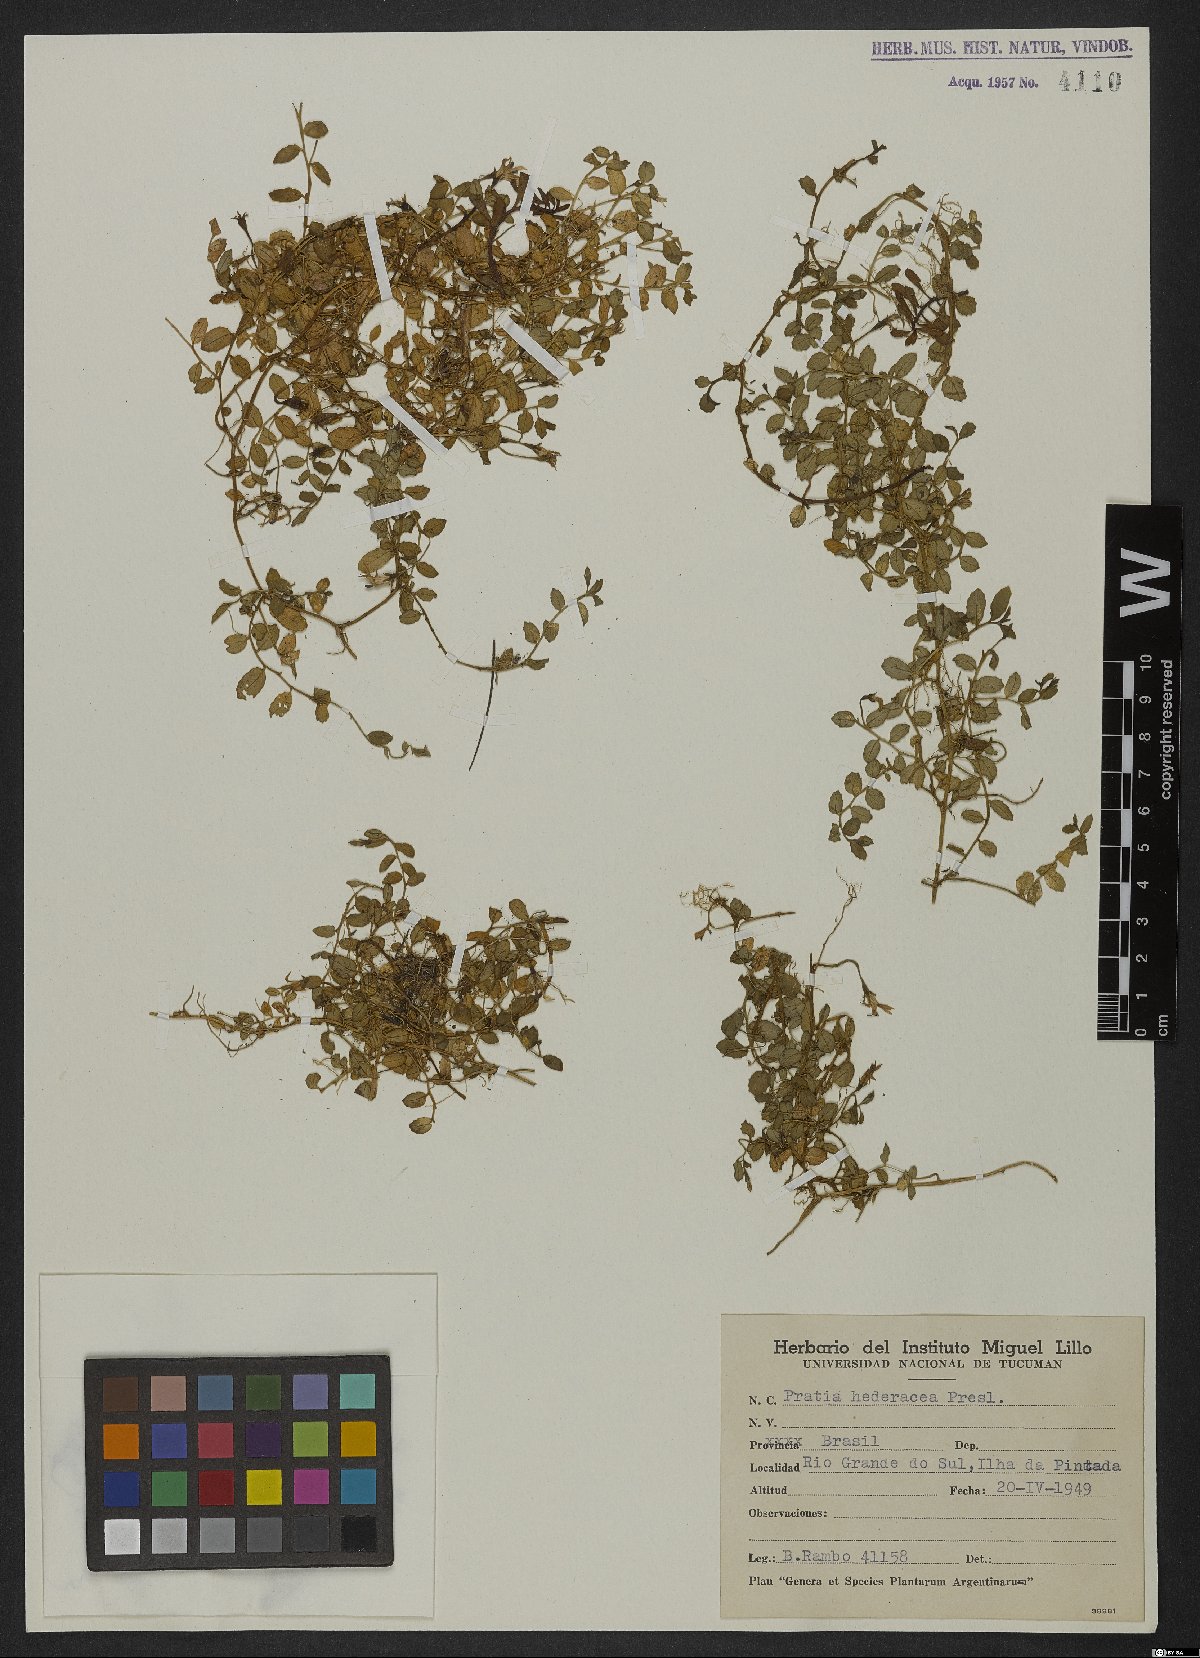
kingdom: Plantae
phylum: Tracheophyta
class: Magnoliopsida
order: Asterales
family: Campanulaceae
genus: Lobelia
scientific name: Lobelia hederacea
